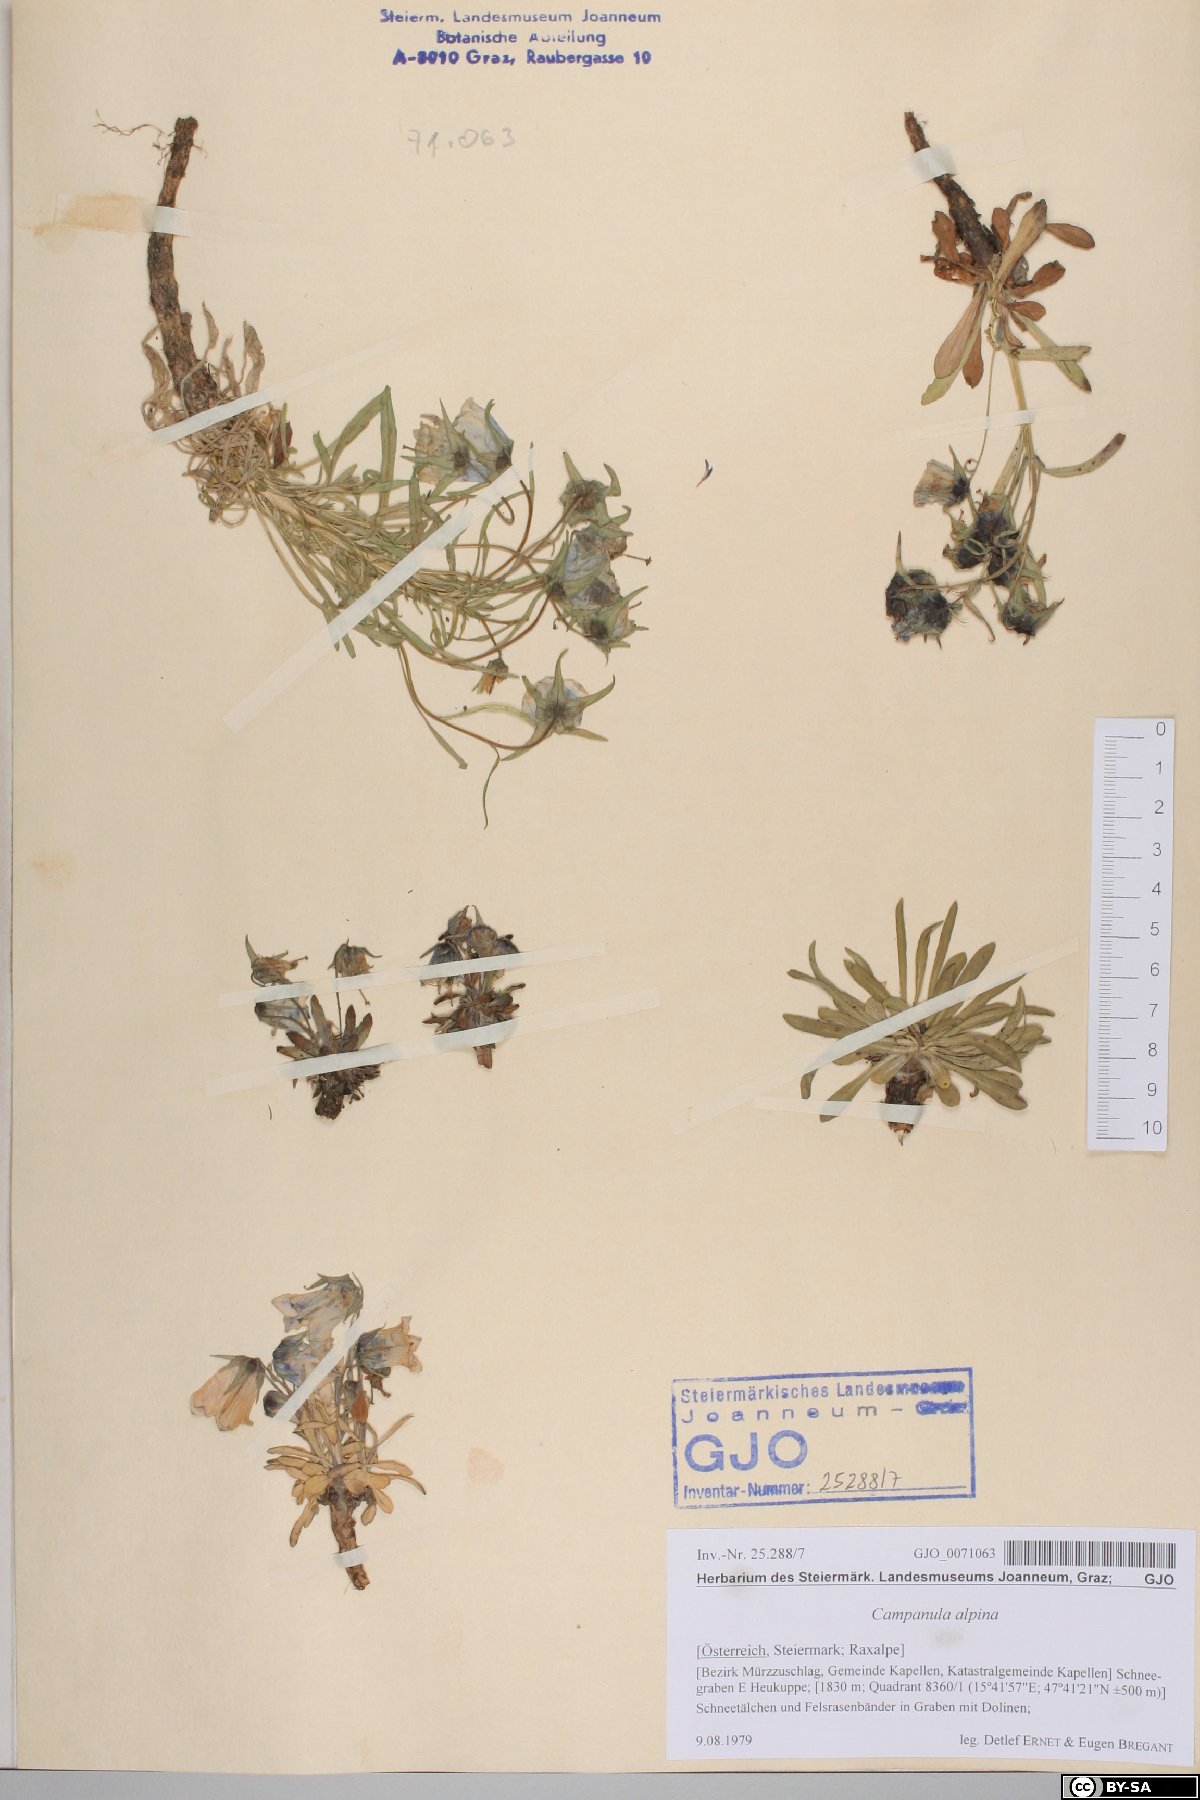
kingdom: Plantae
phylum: Tracheophyta
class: Magnoliopsida
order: Asterales
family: Campanulaceae
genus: Campanula
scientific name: Campanula alpina
